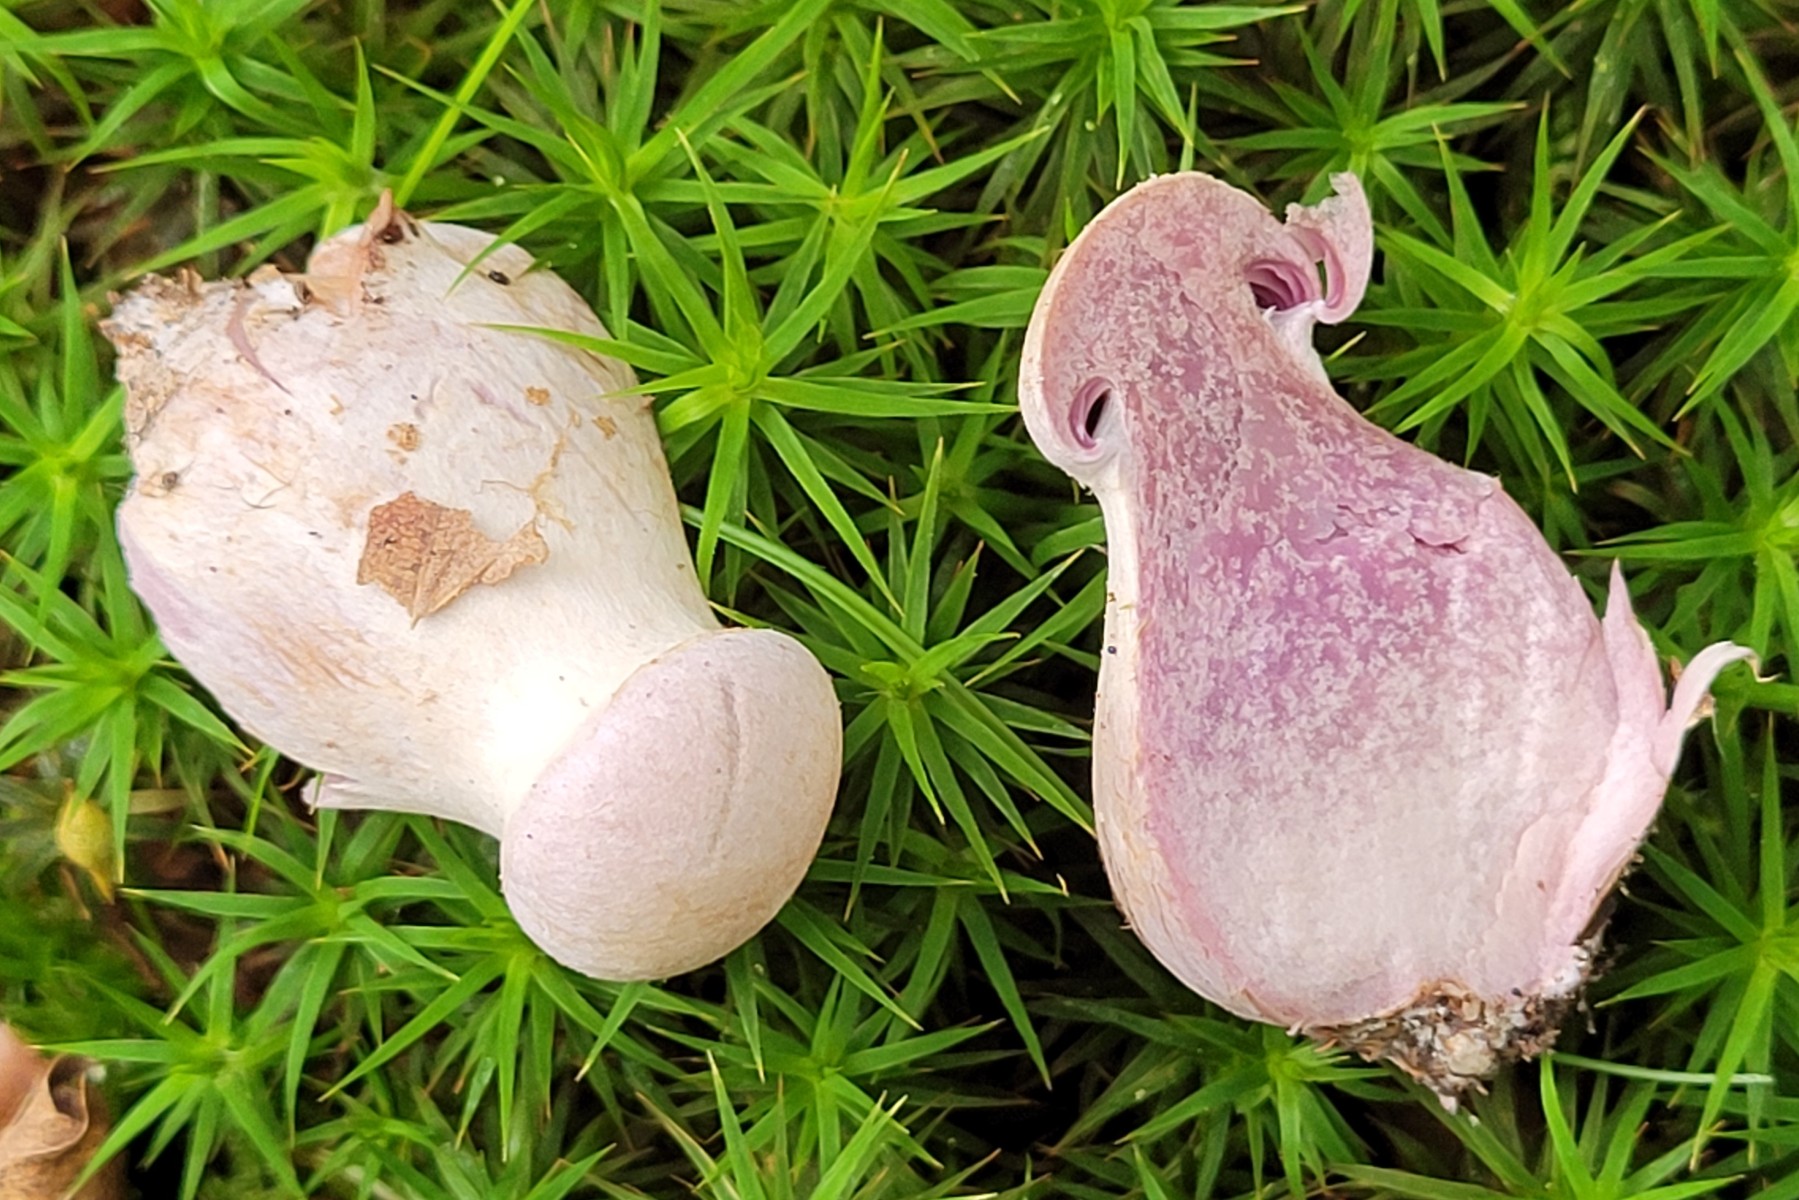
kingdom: Fungi
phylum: Basidiomycota
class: Agaricomycetes
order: Agaricales
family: Cortinariaceae
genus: Cortinarius
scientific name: Cortinarius
